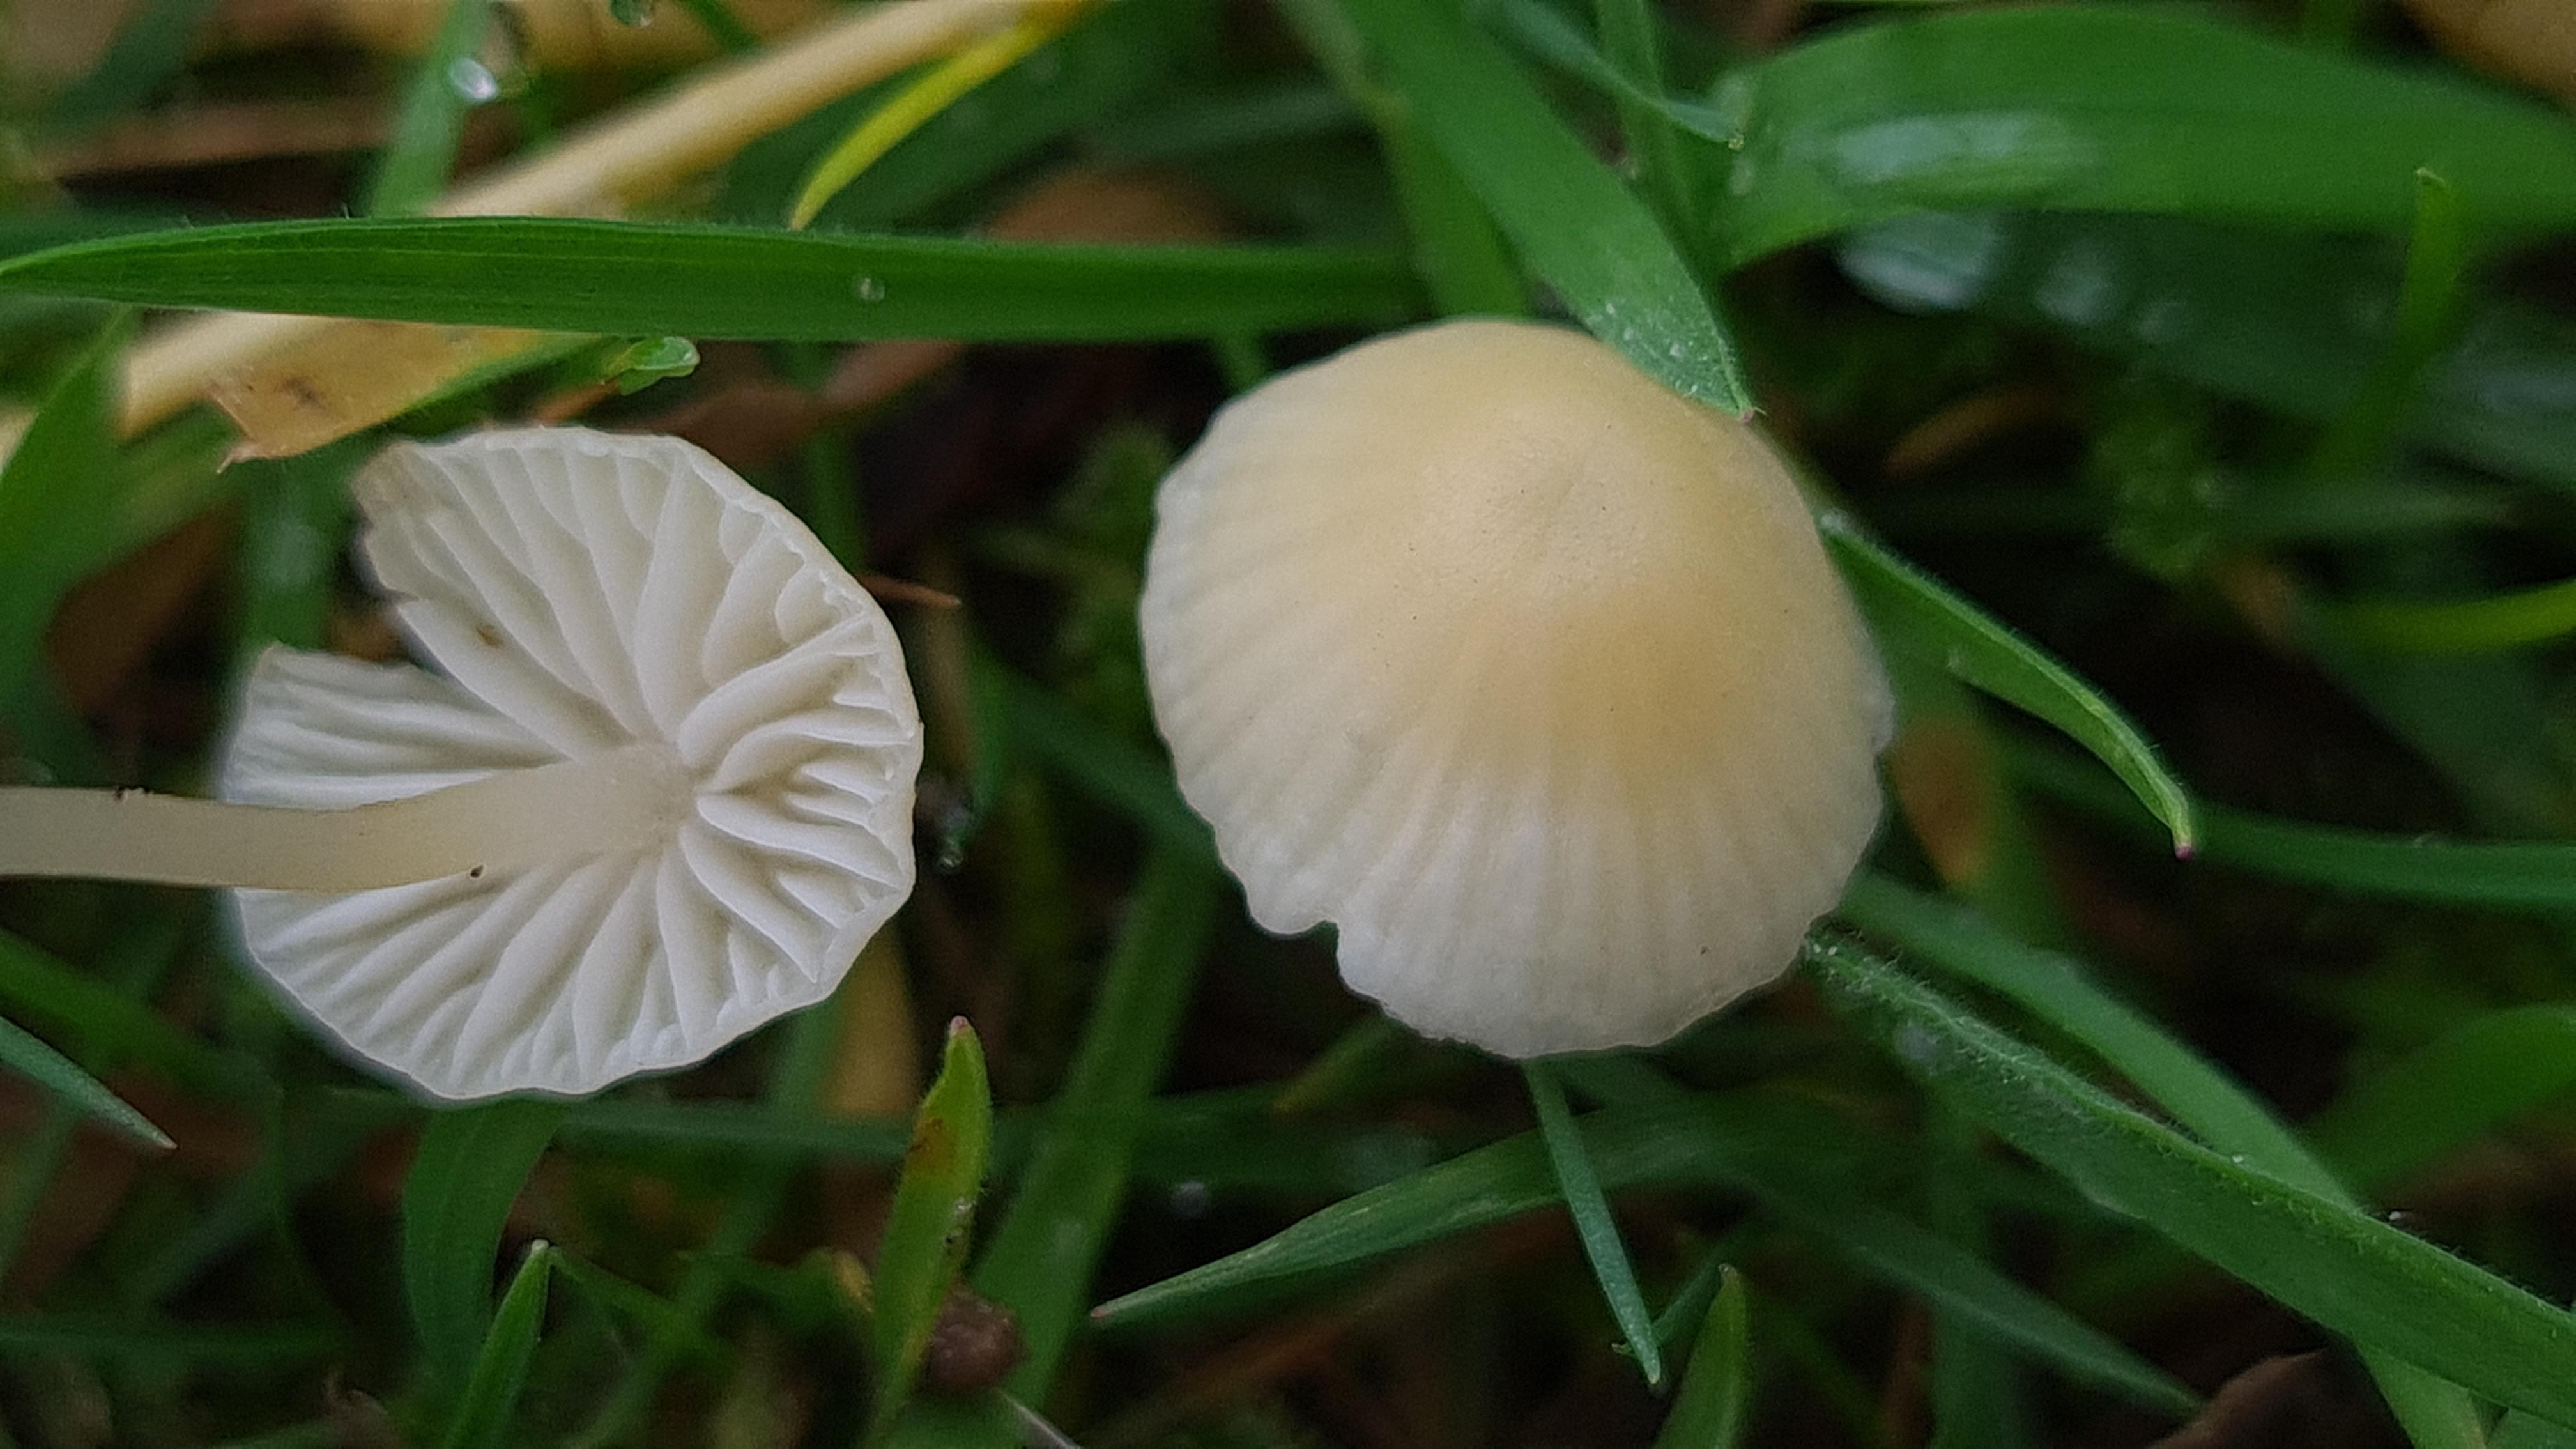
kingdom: Fungi
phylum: Basidiomycota
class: Agaricomycetes
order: Agaricales
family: Mycenaceae
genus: Atheniella
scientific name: Atheniella flavoalba
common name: gulhvid huesvamp
